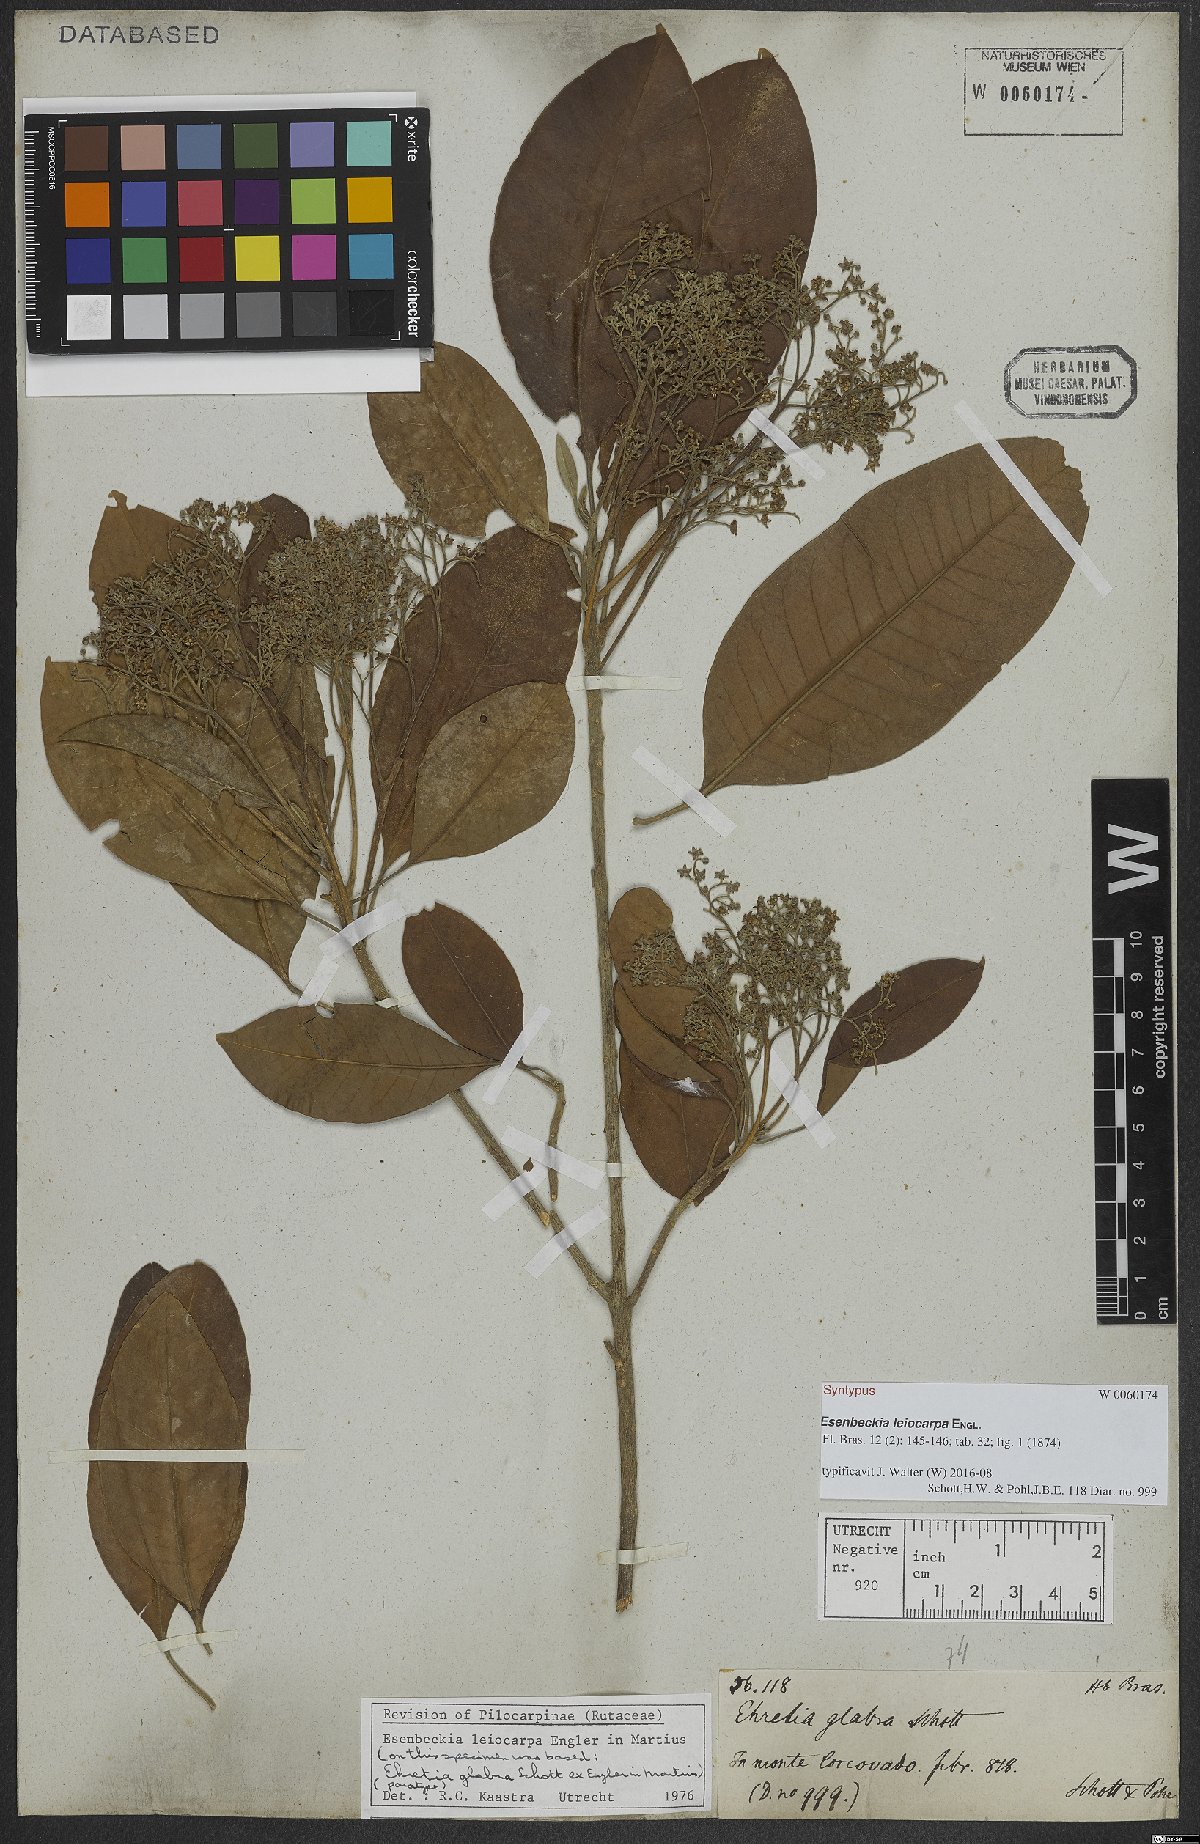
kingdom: Plantae
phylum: Tracheophyta
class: Magnoliopsida
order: Sapindales
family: Rutaceae
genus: Esenbeckia
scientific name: Esenbeckia leiocarpa
